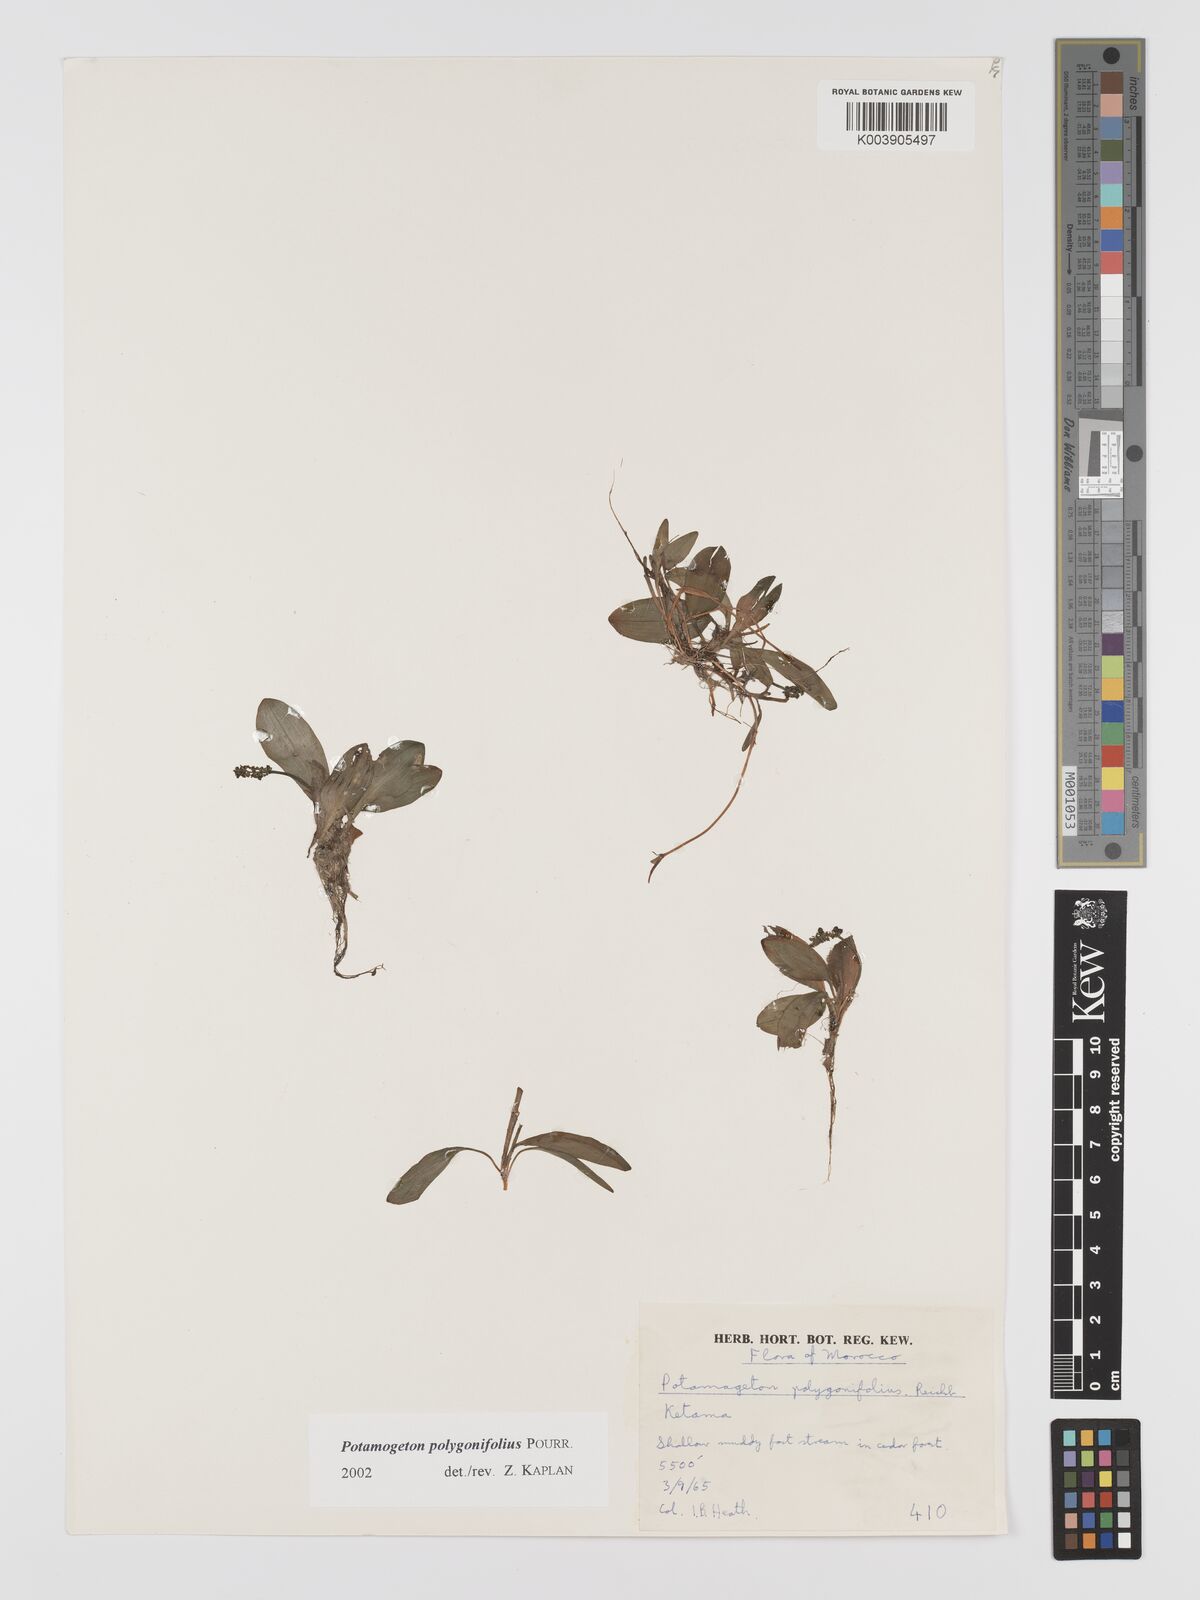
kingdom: Plantae
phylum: Tracheophyta
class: Liliopsida
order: Alismatales
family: Potamogetonaceae
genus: Potamogeton
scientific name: Potamogeton polygonifolius
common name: Bog pondweed
